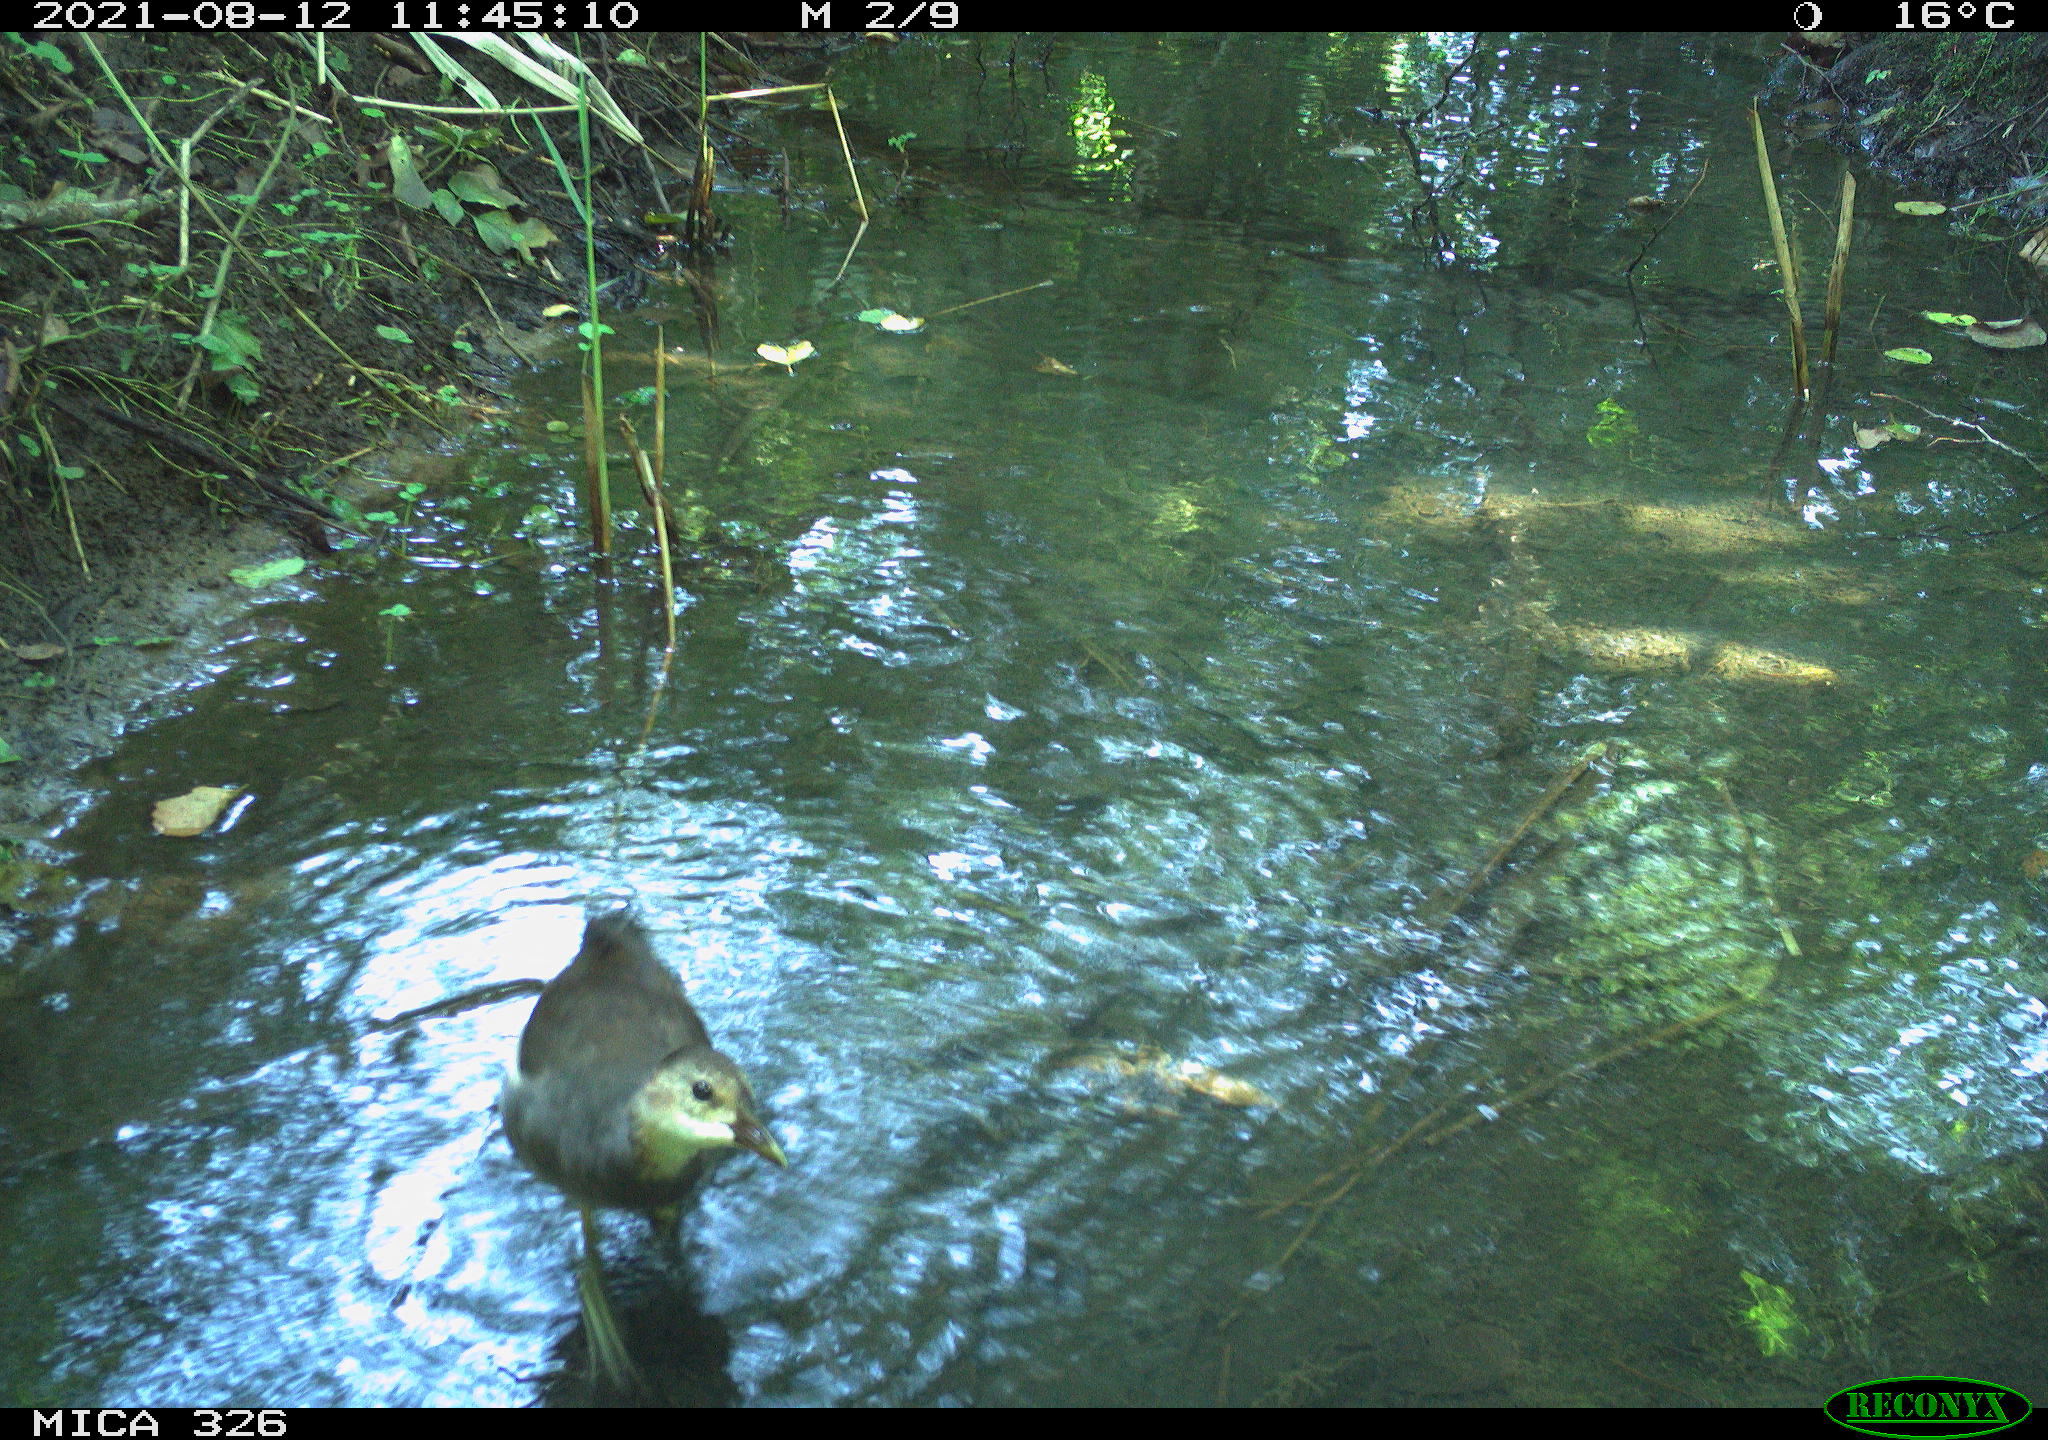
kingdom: Animalia
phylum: Chordata
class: Aves
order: Gruiformes
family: Rallidae
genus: Gallinula
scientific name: Gallinula chloropus
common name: Common moorhen
